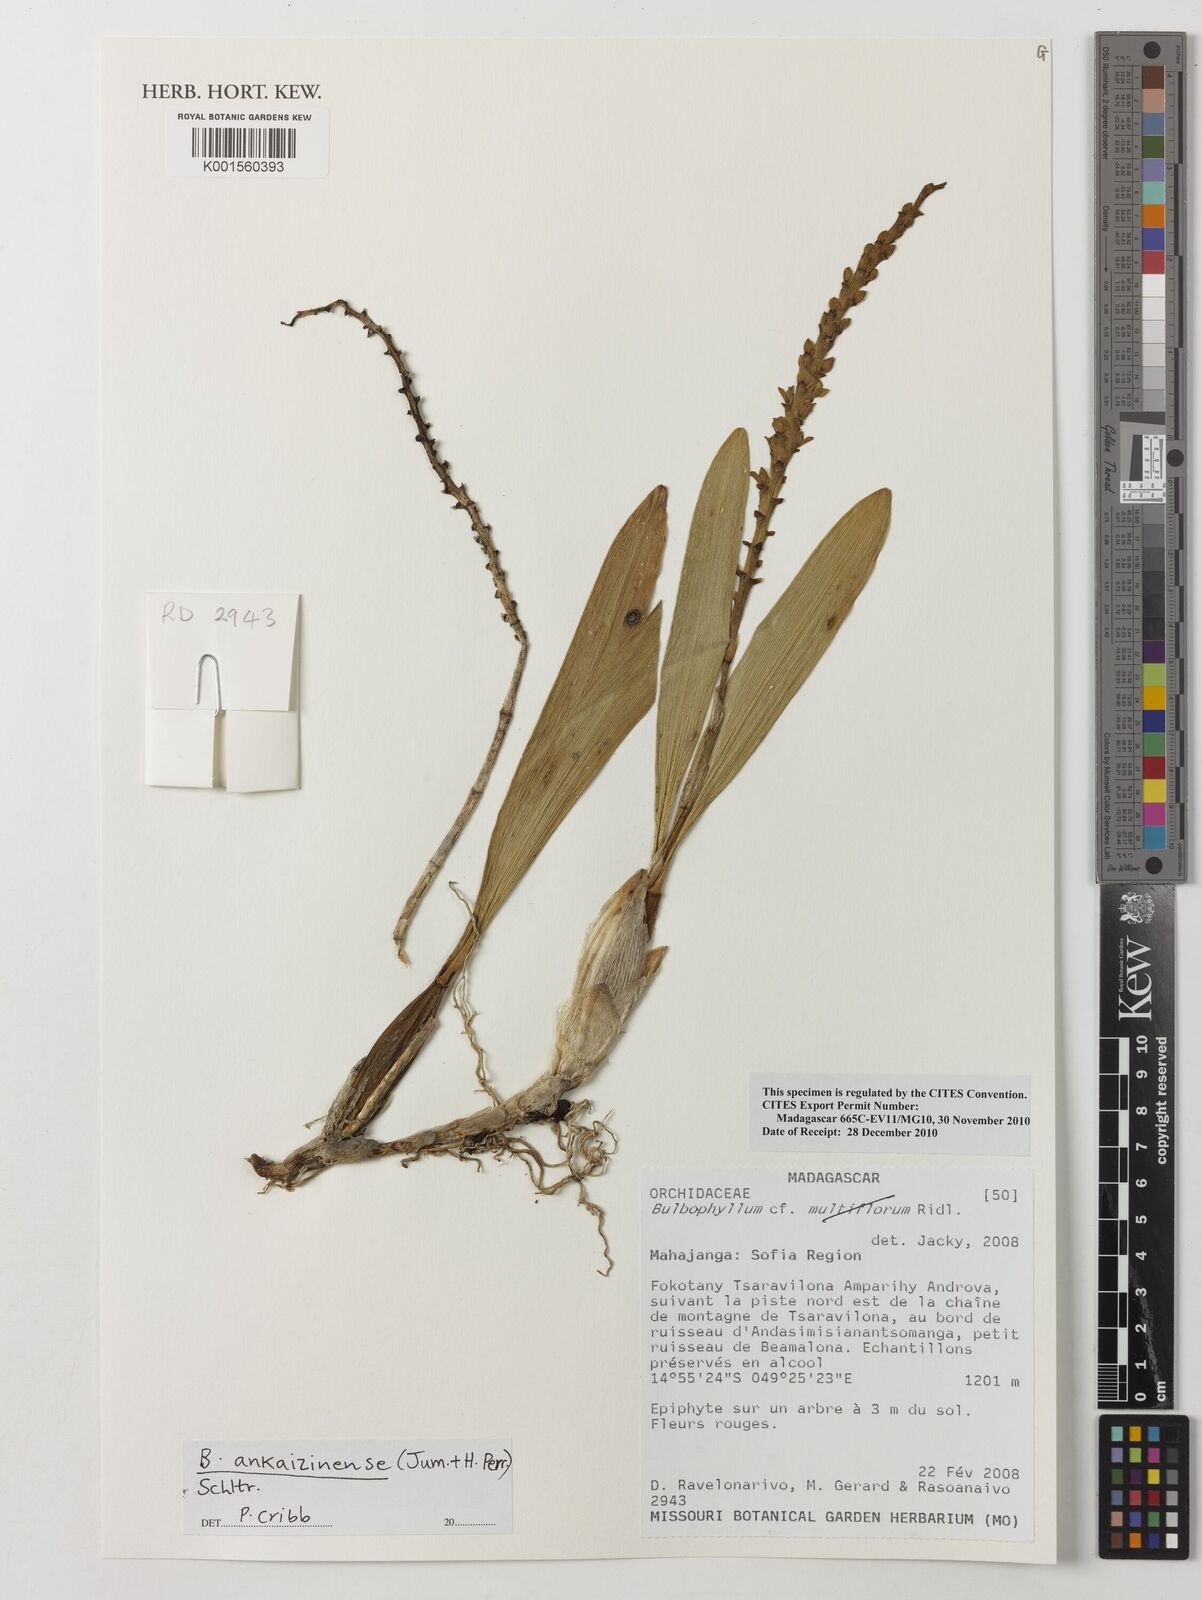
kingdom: Plantae
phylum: Tracheophyta
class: Liliopsida
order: Asparagales
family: Orchidaceae
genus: Bulbophyllum
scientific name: Bulbophyllum ankaizinense
